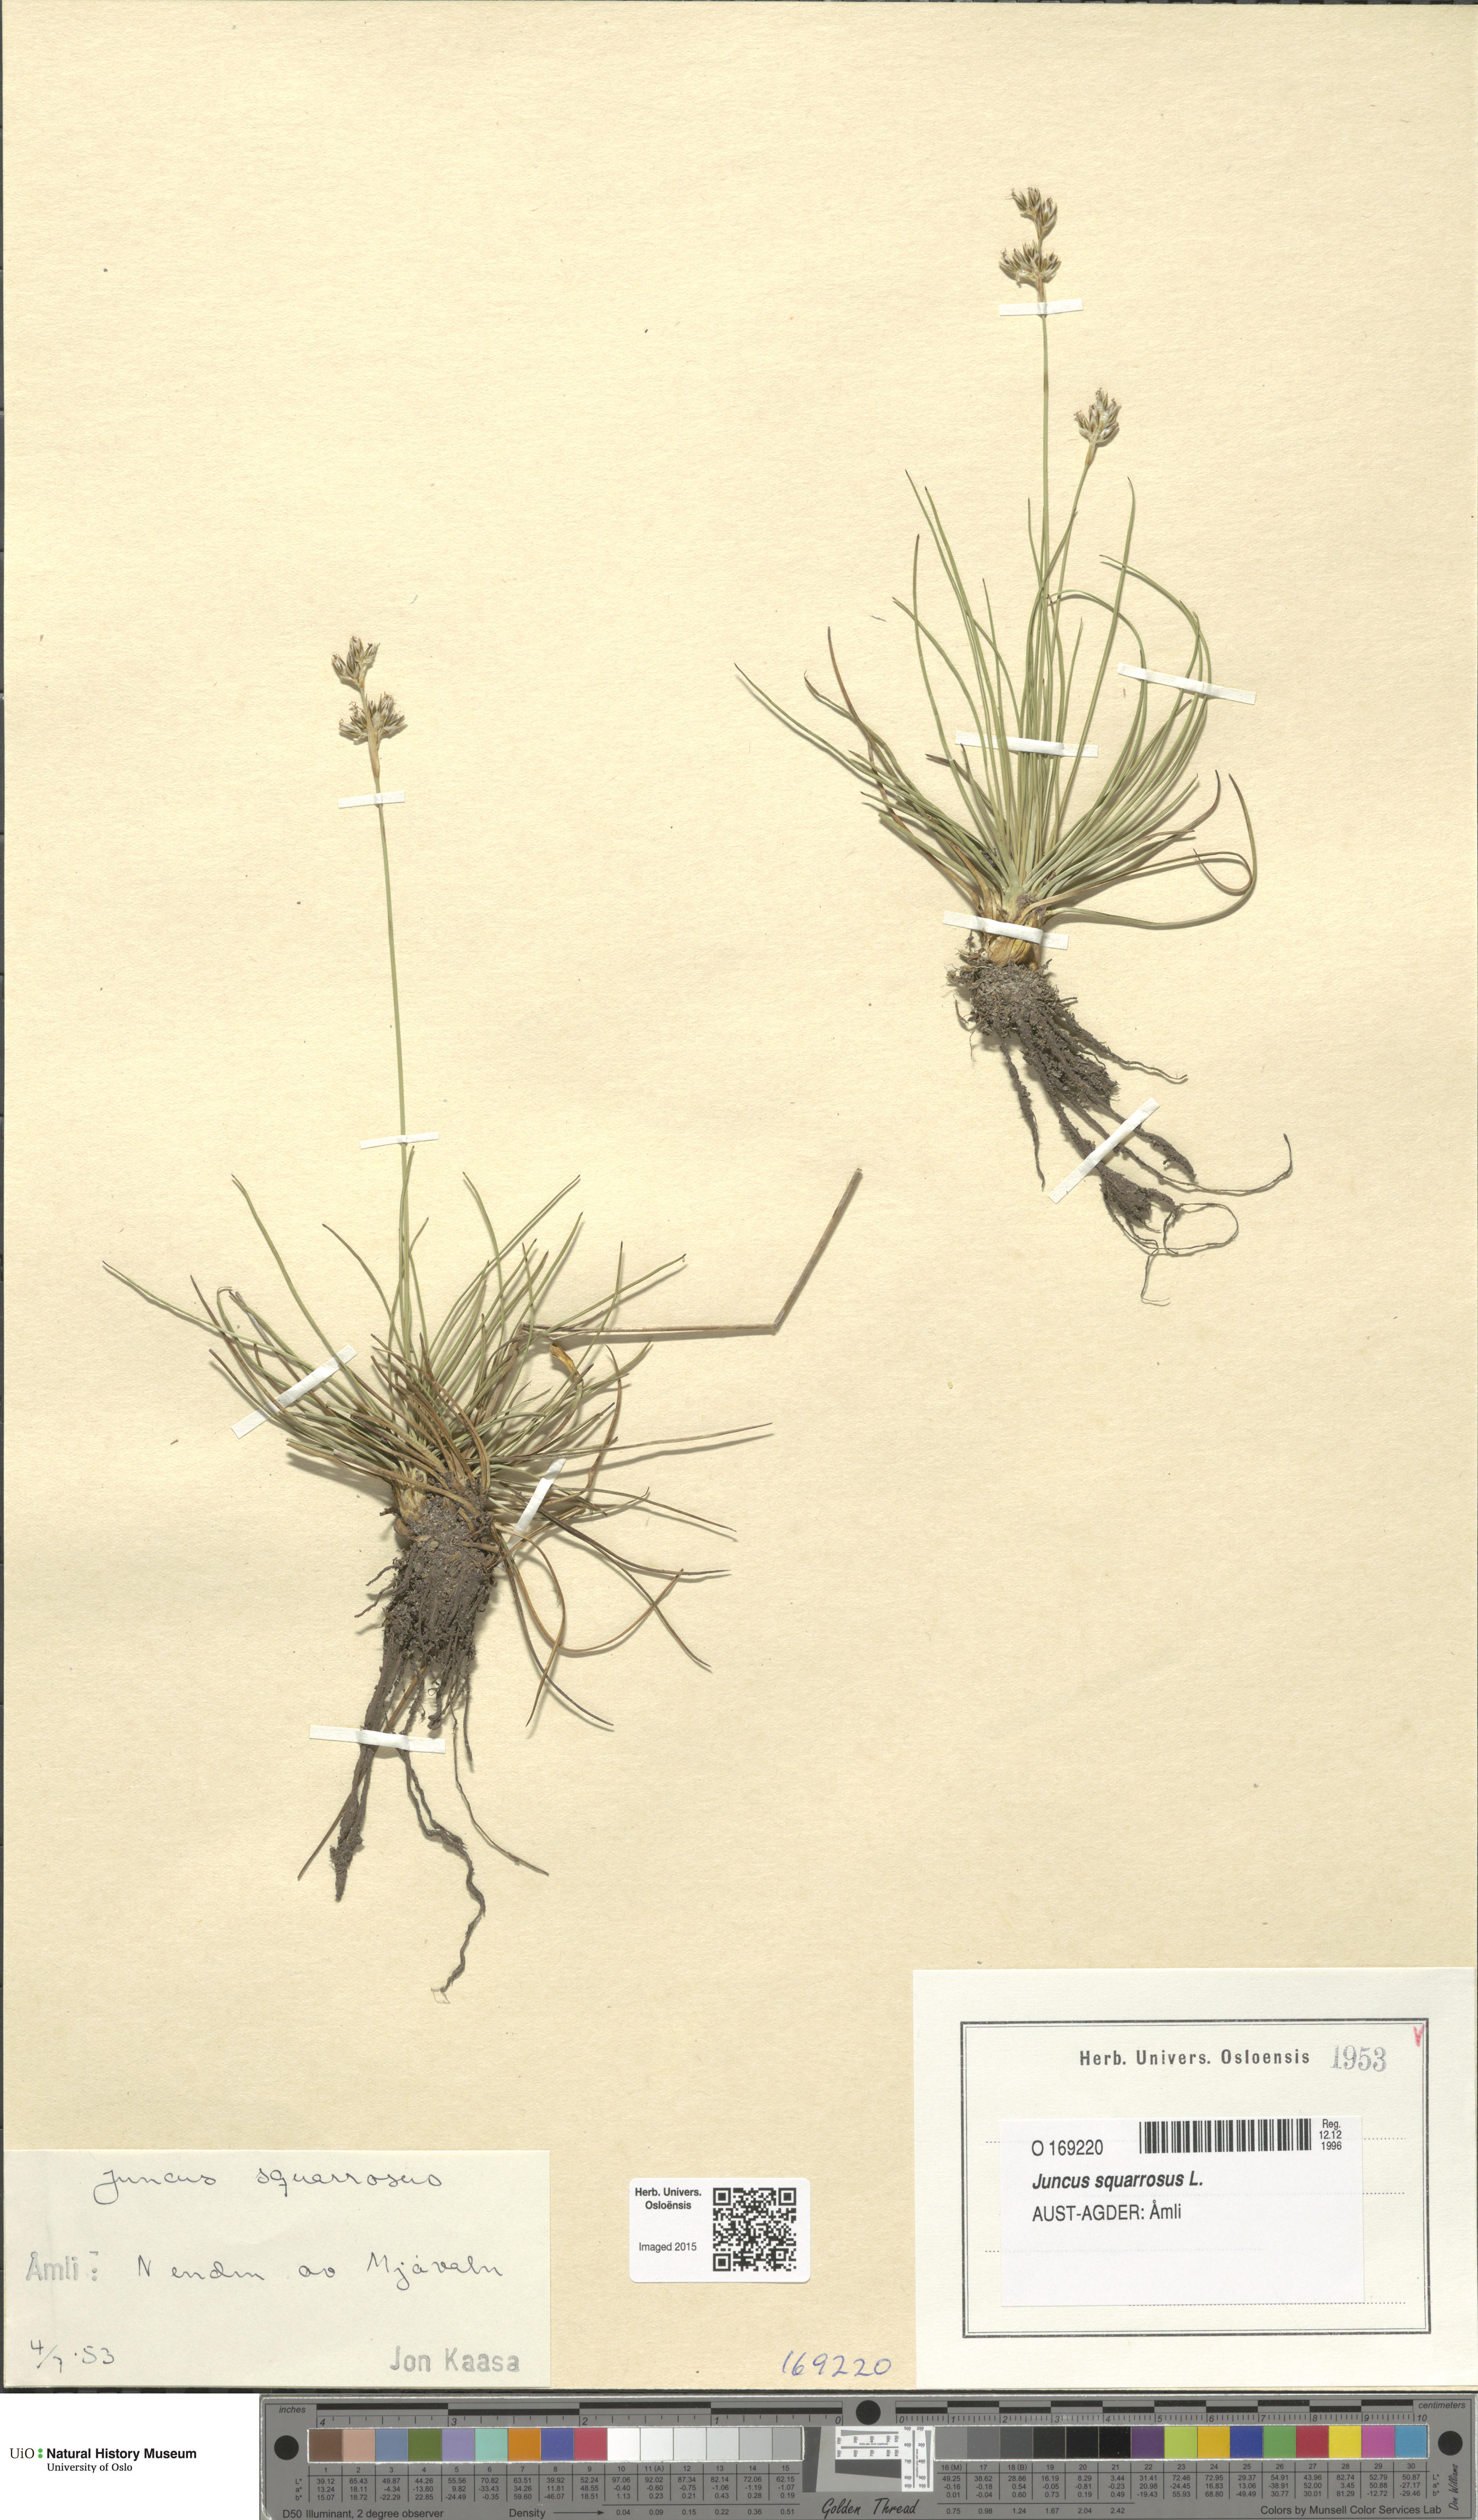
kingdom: Plantae
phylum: Tracheophyta
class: Liliopsida
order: Poales
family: Juncaceae
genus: Juncus
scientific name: Juncus squarrosus
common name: Heath rush
